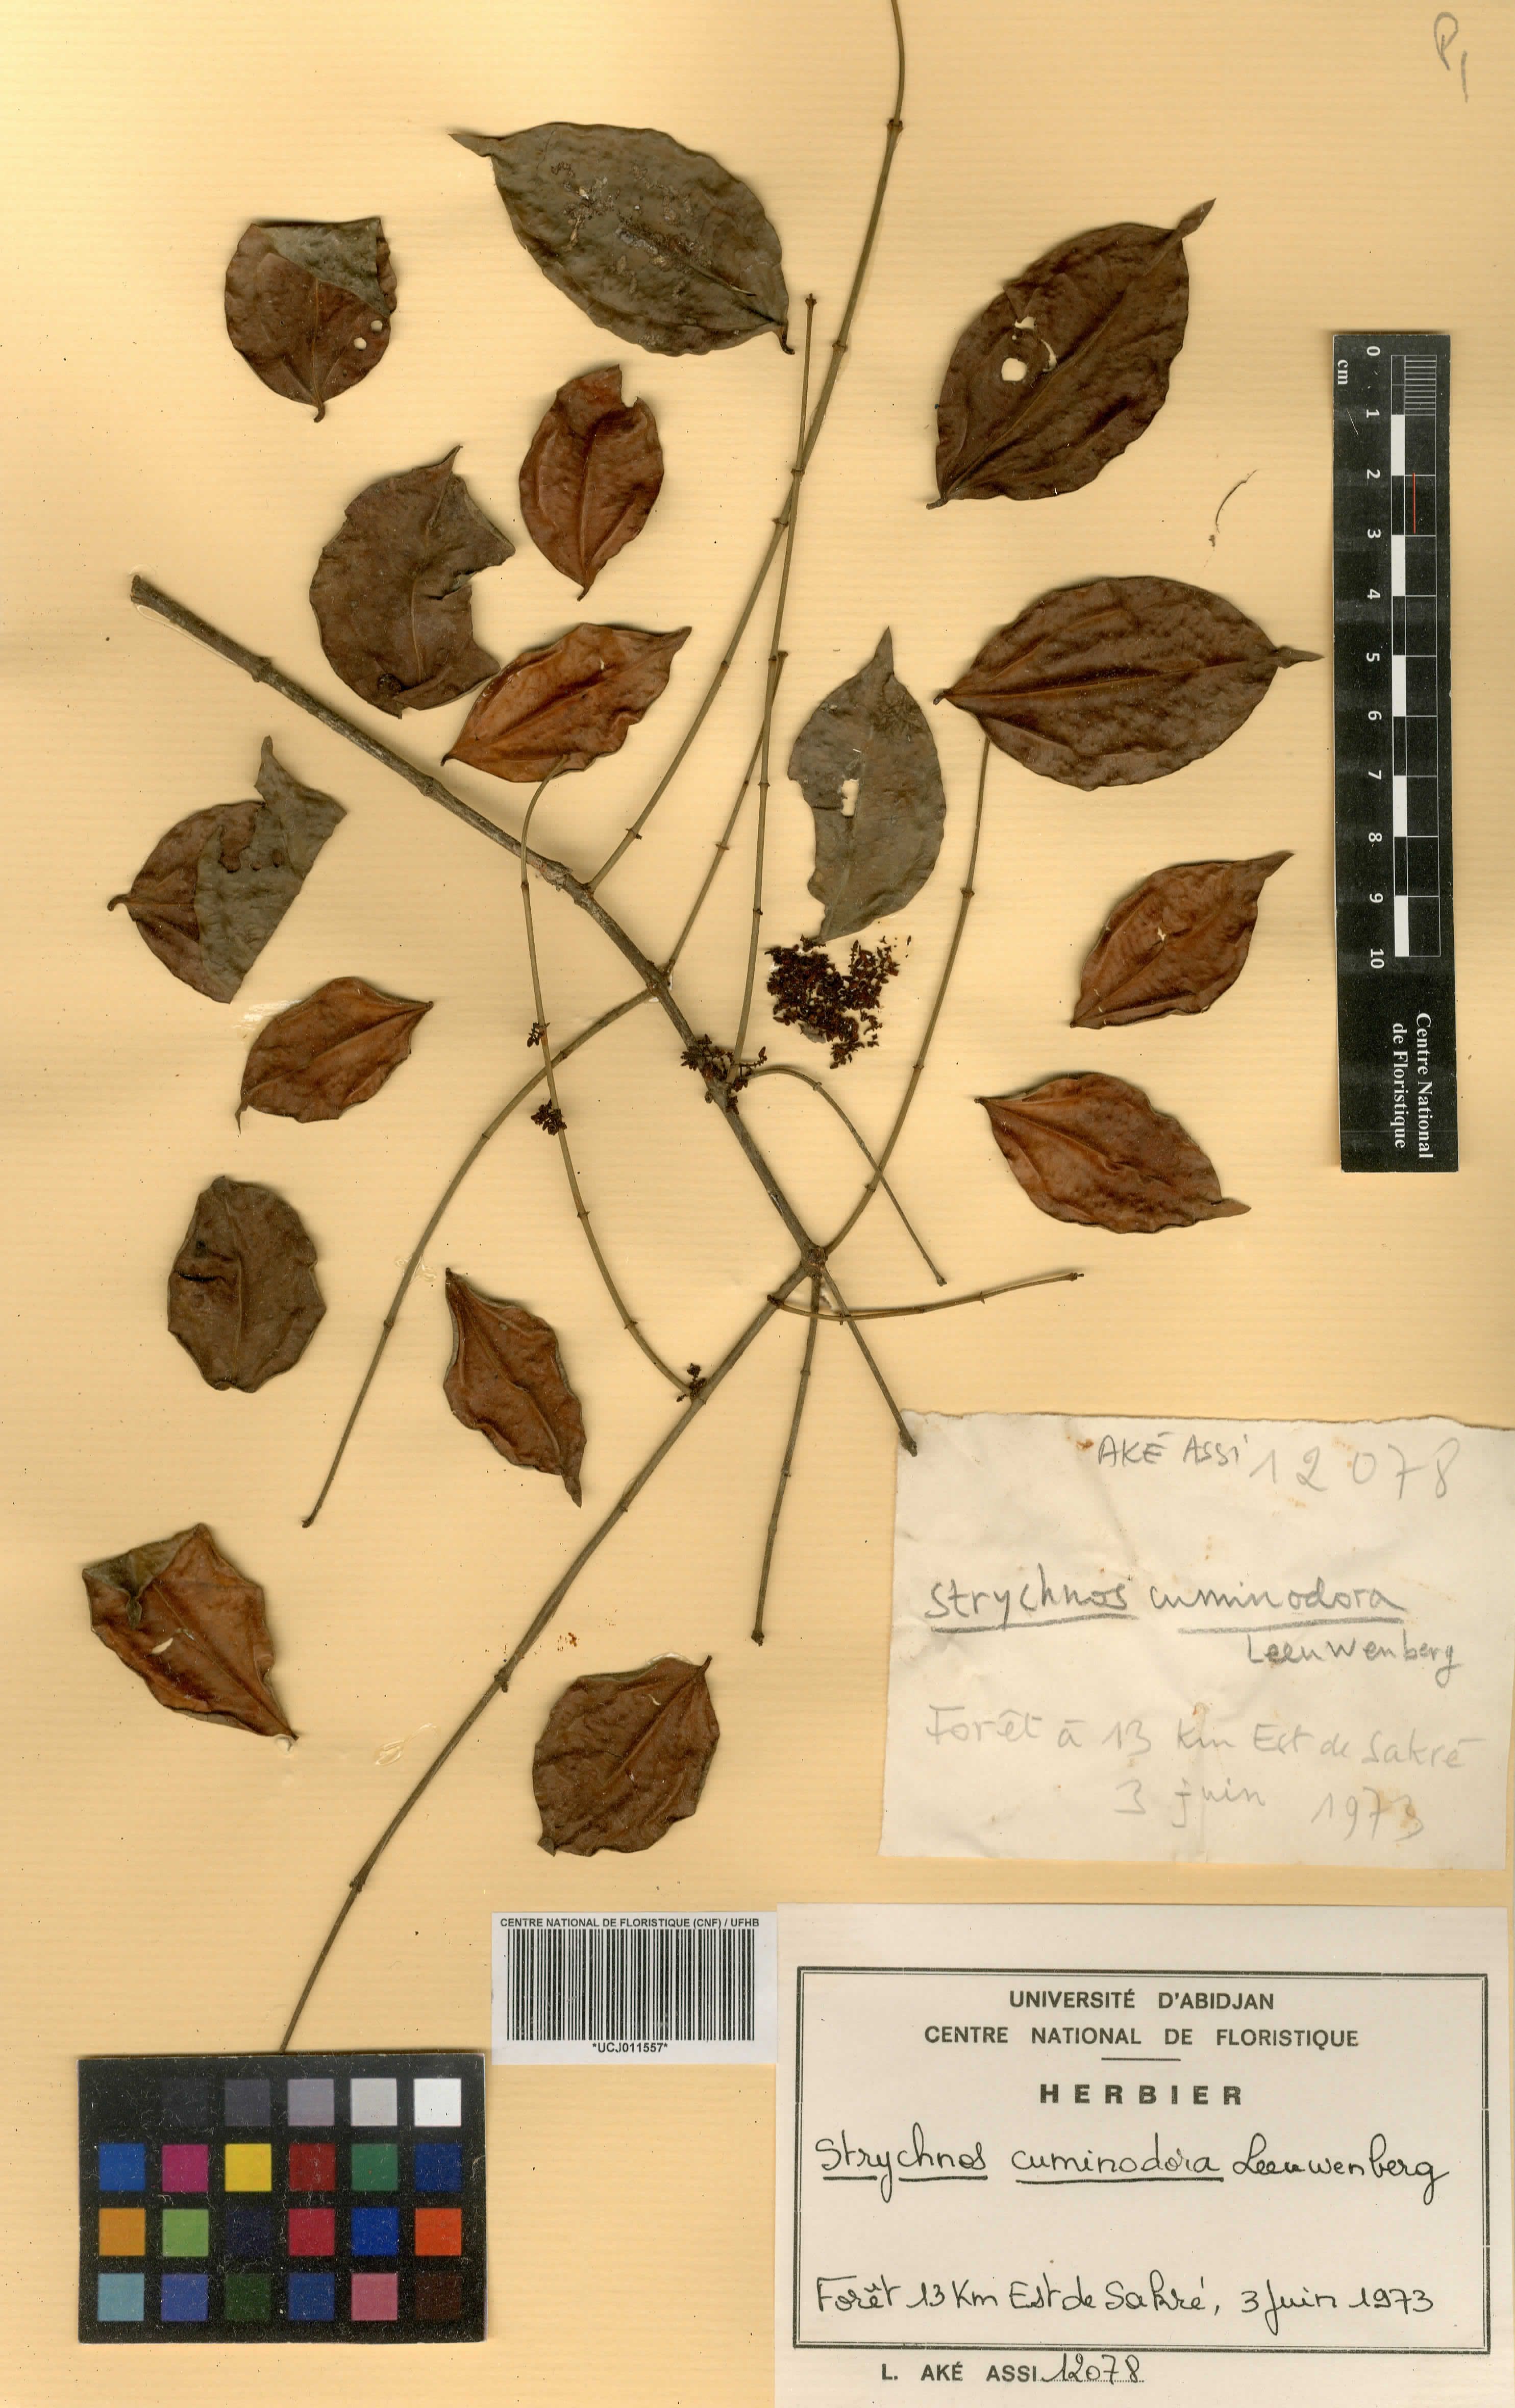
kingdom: Plantae
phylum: Tracheophyta
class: Magnoliopsida
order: Gentianales
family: Loganiaceae
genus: Strychnos
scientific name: Strychnos cuminodora
